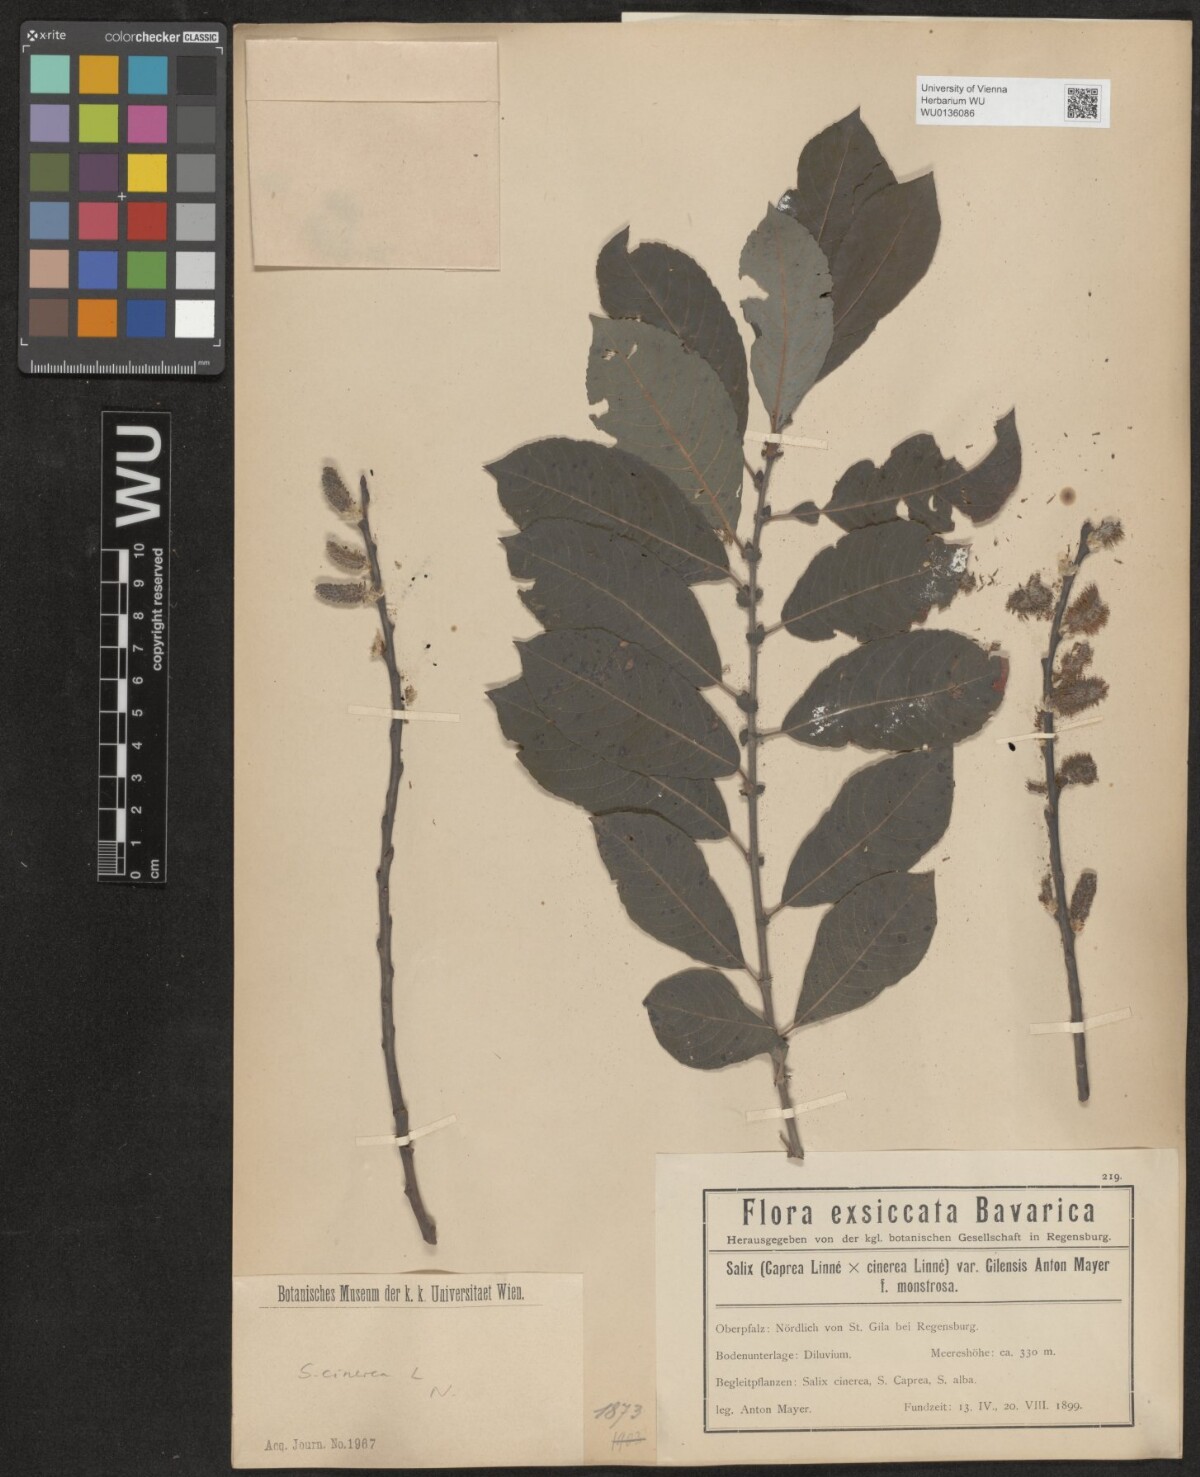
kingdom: Plantae
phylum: Tracheophyta
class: Magnoliopsida
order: Malpighiales
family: Salicaceae
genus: Salix
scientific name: Salix cinerea
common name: Common sallow
